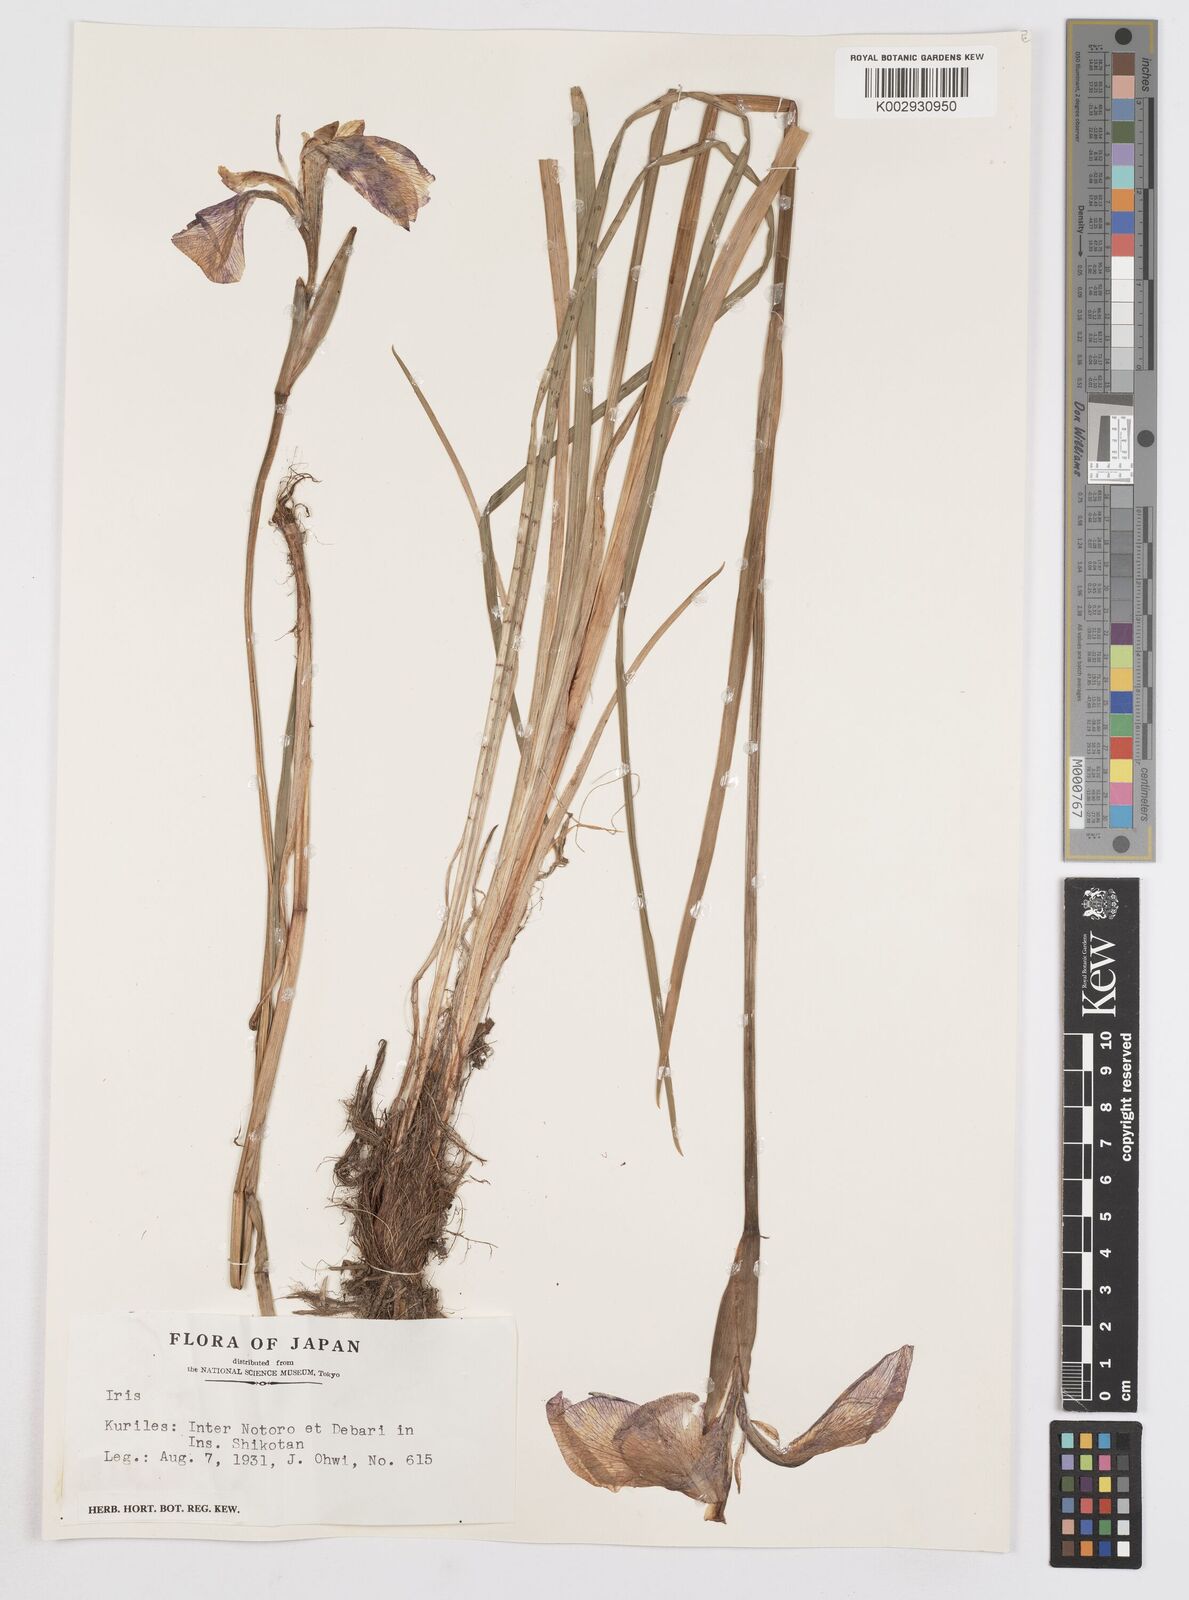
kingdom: Plantae
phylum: Tracheophyta
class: Liliopsida
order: Asparagales
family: Iridaceae
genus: Iris
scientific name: Iris
